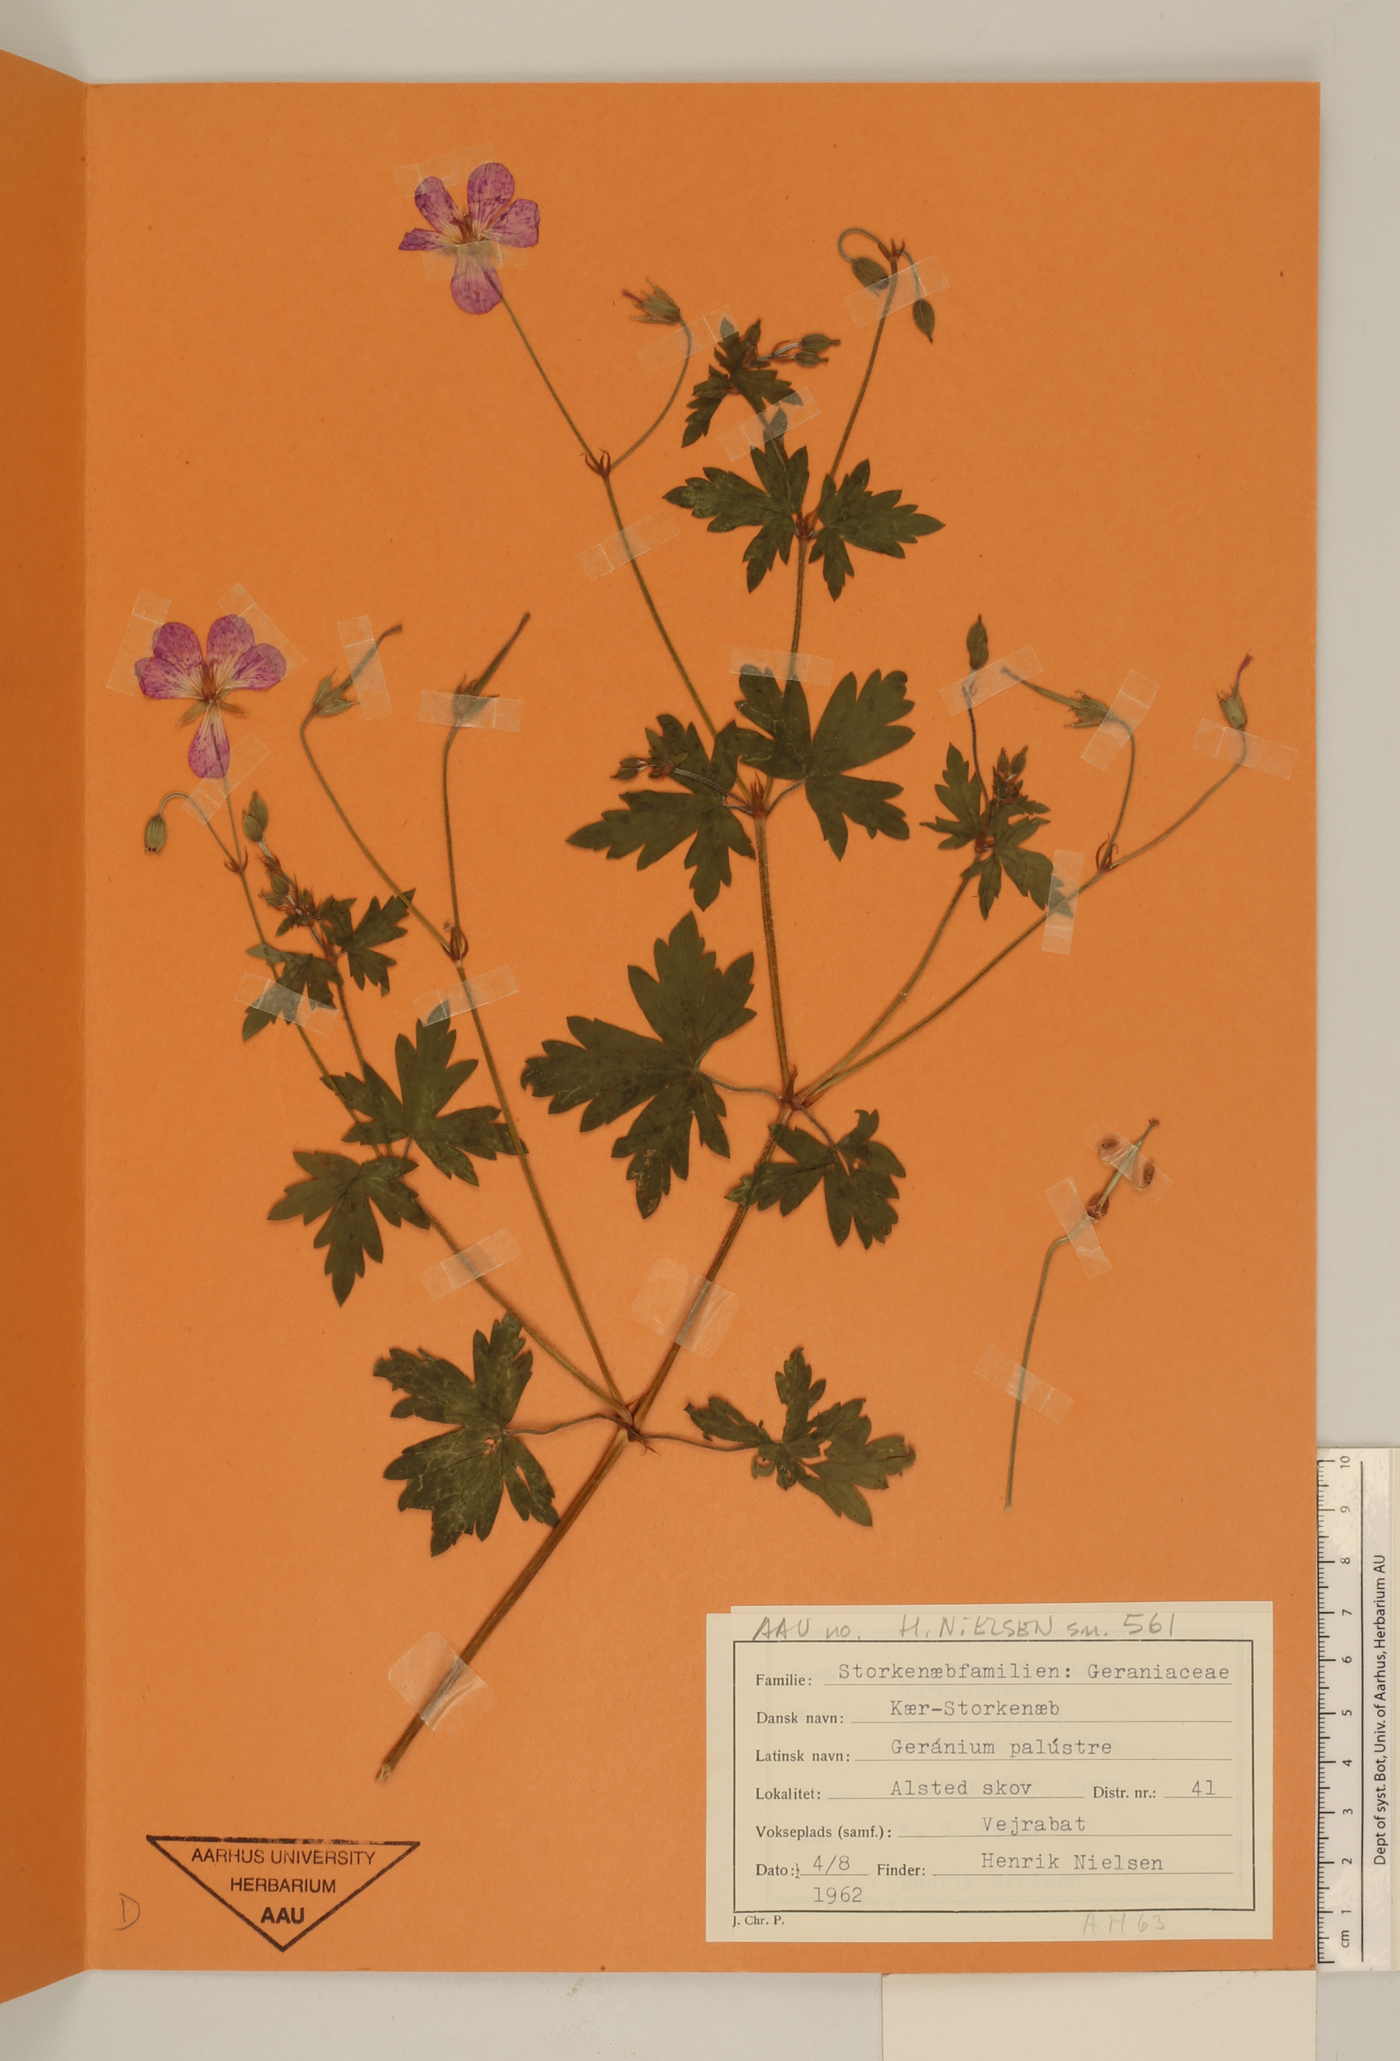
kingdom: Plantae
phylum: Tracheophyta
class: Magnoliopsida
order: Geraniales
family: Geraniaceae
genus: Geranium
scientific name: Geranium himalayense
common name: Himalayan crane's-bill
